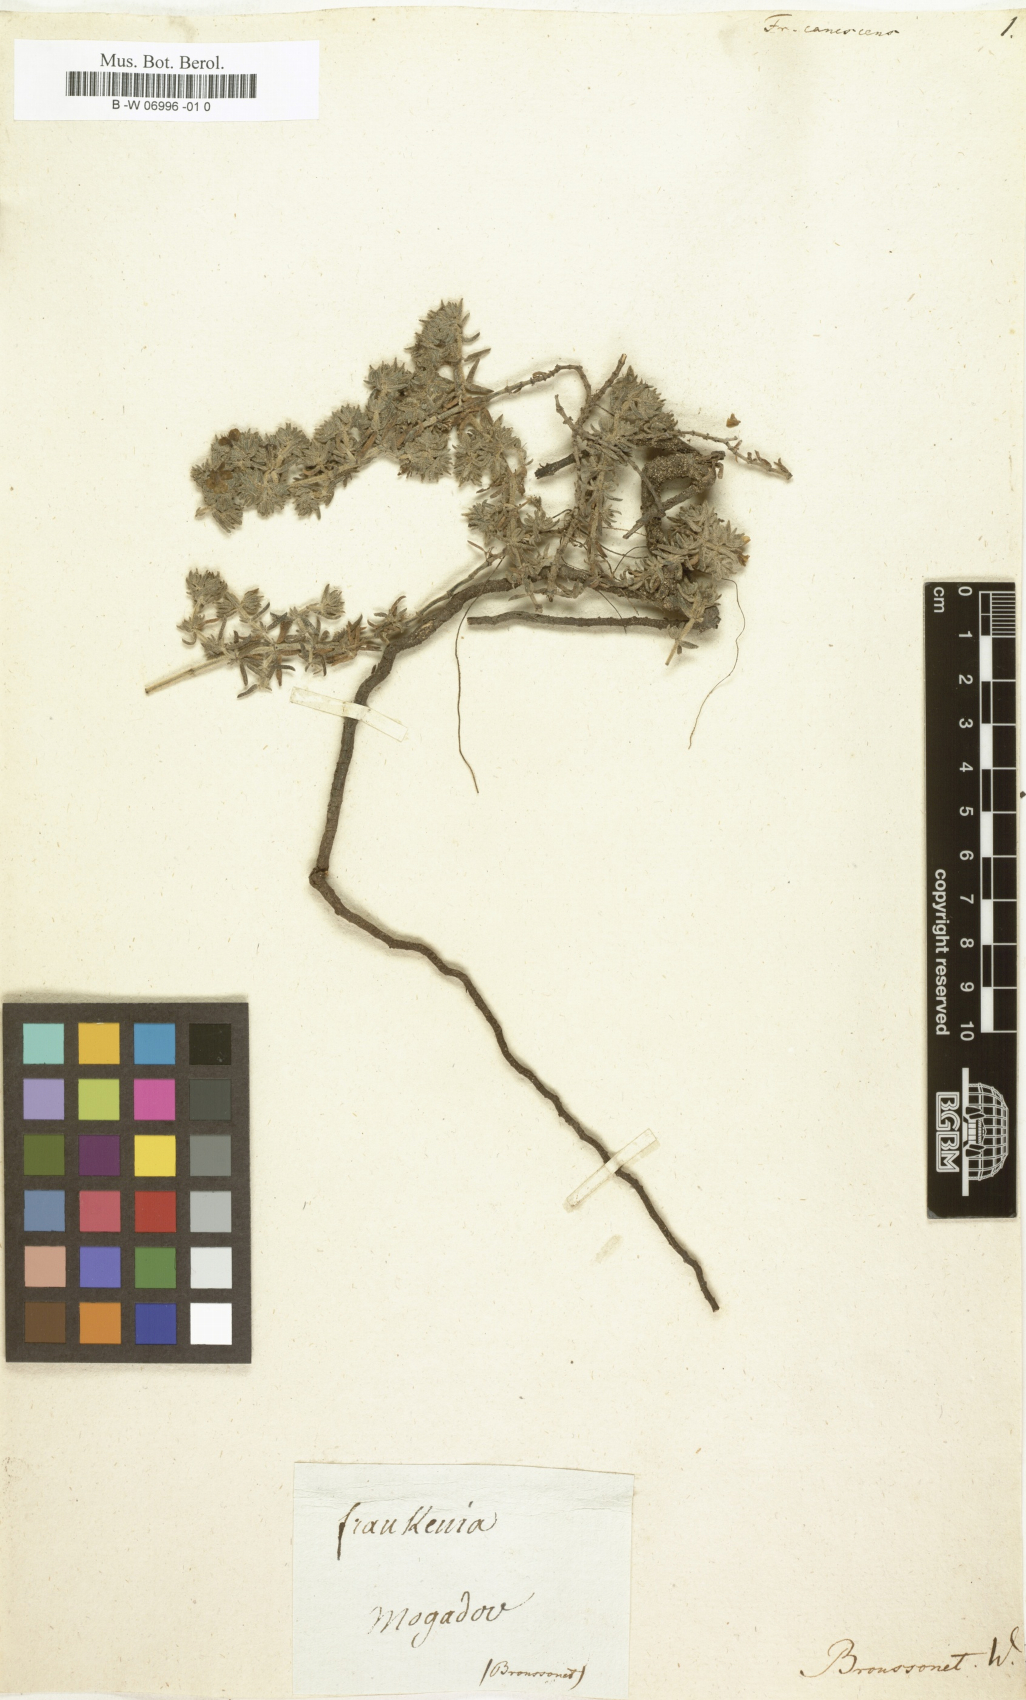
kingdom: Plantae
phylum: Tracheophyta
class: Magnoliopsida
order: Caryophyllales
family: Frankeniaceae
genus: Frankenia
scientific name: Frankenia
